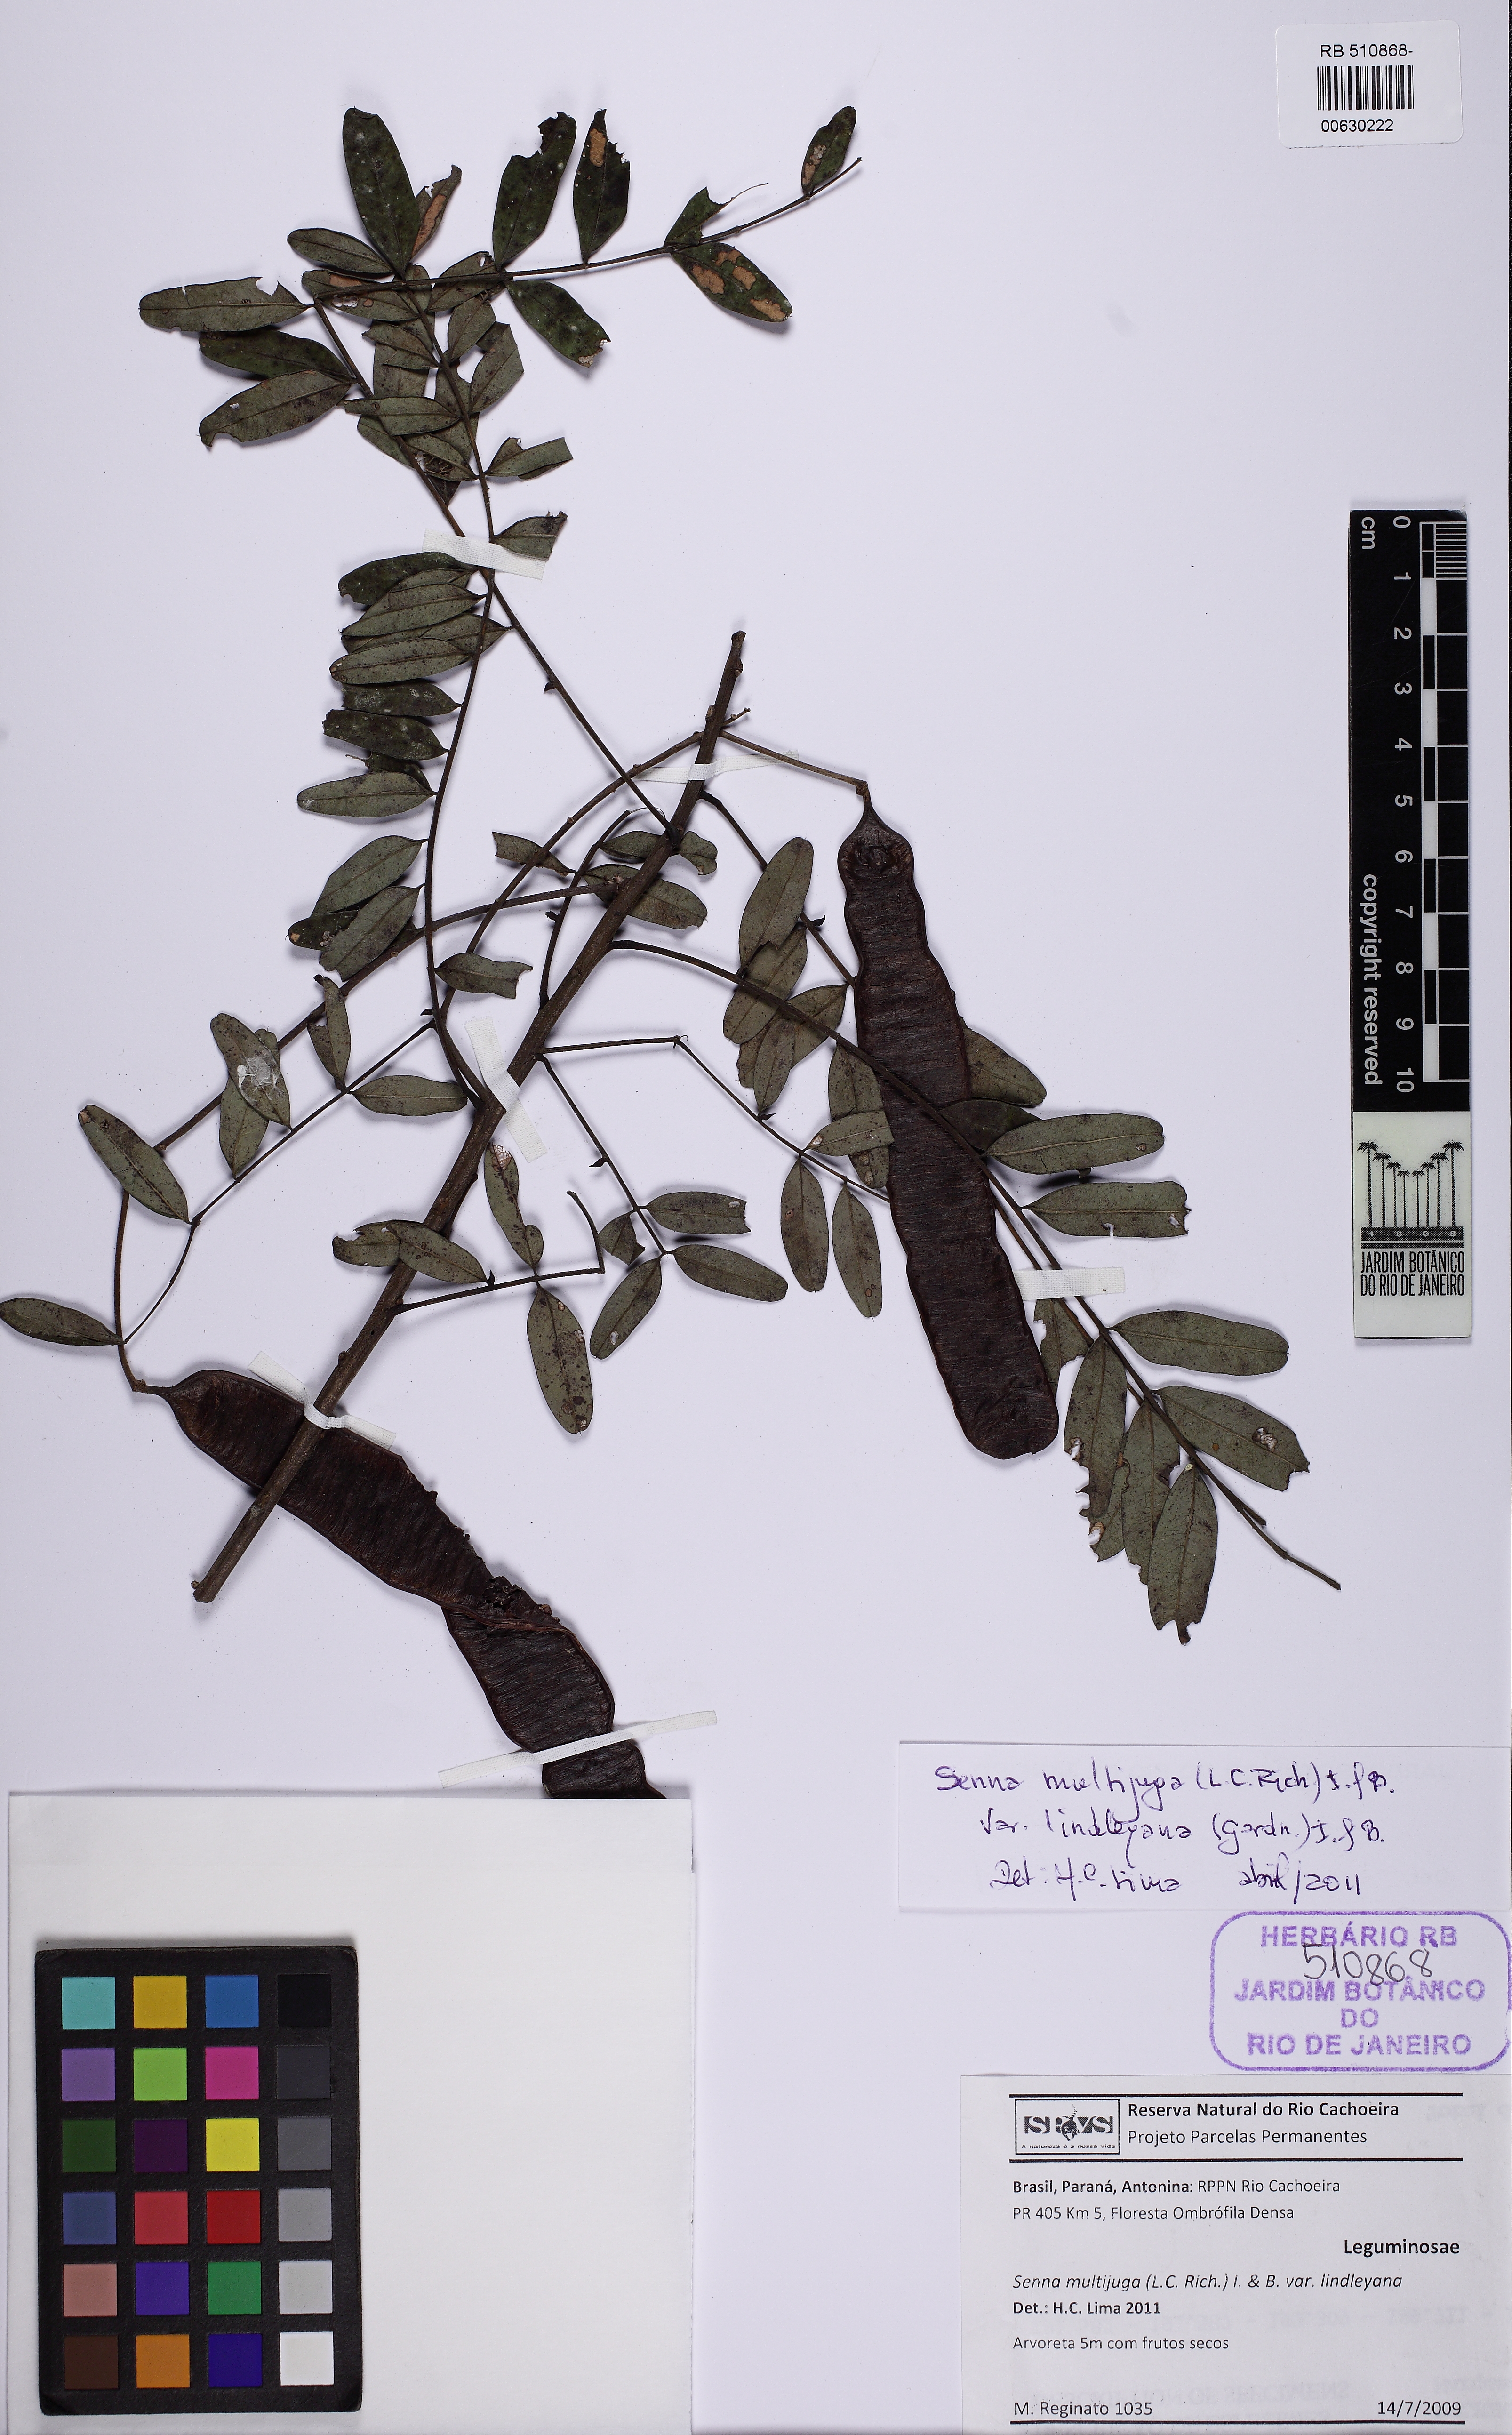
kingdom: Plantae
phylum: Tracheophyta
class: Magnoliopsida
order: Fabales
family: Fabaceae
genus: Senna
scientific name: Senna multijuga
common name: False sicklepod
